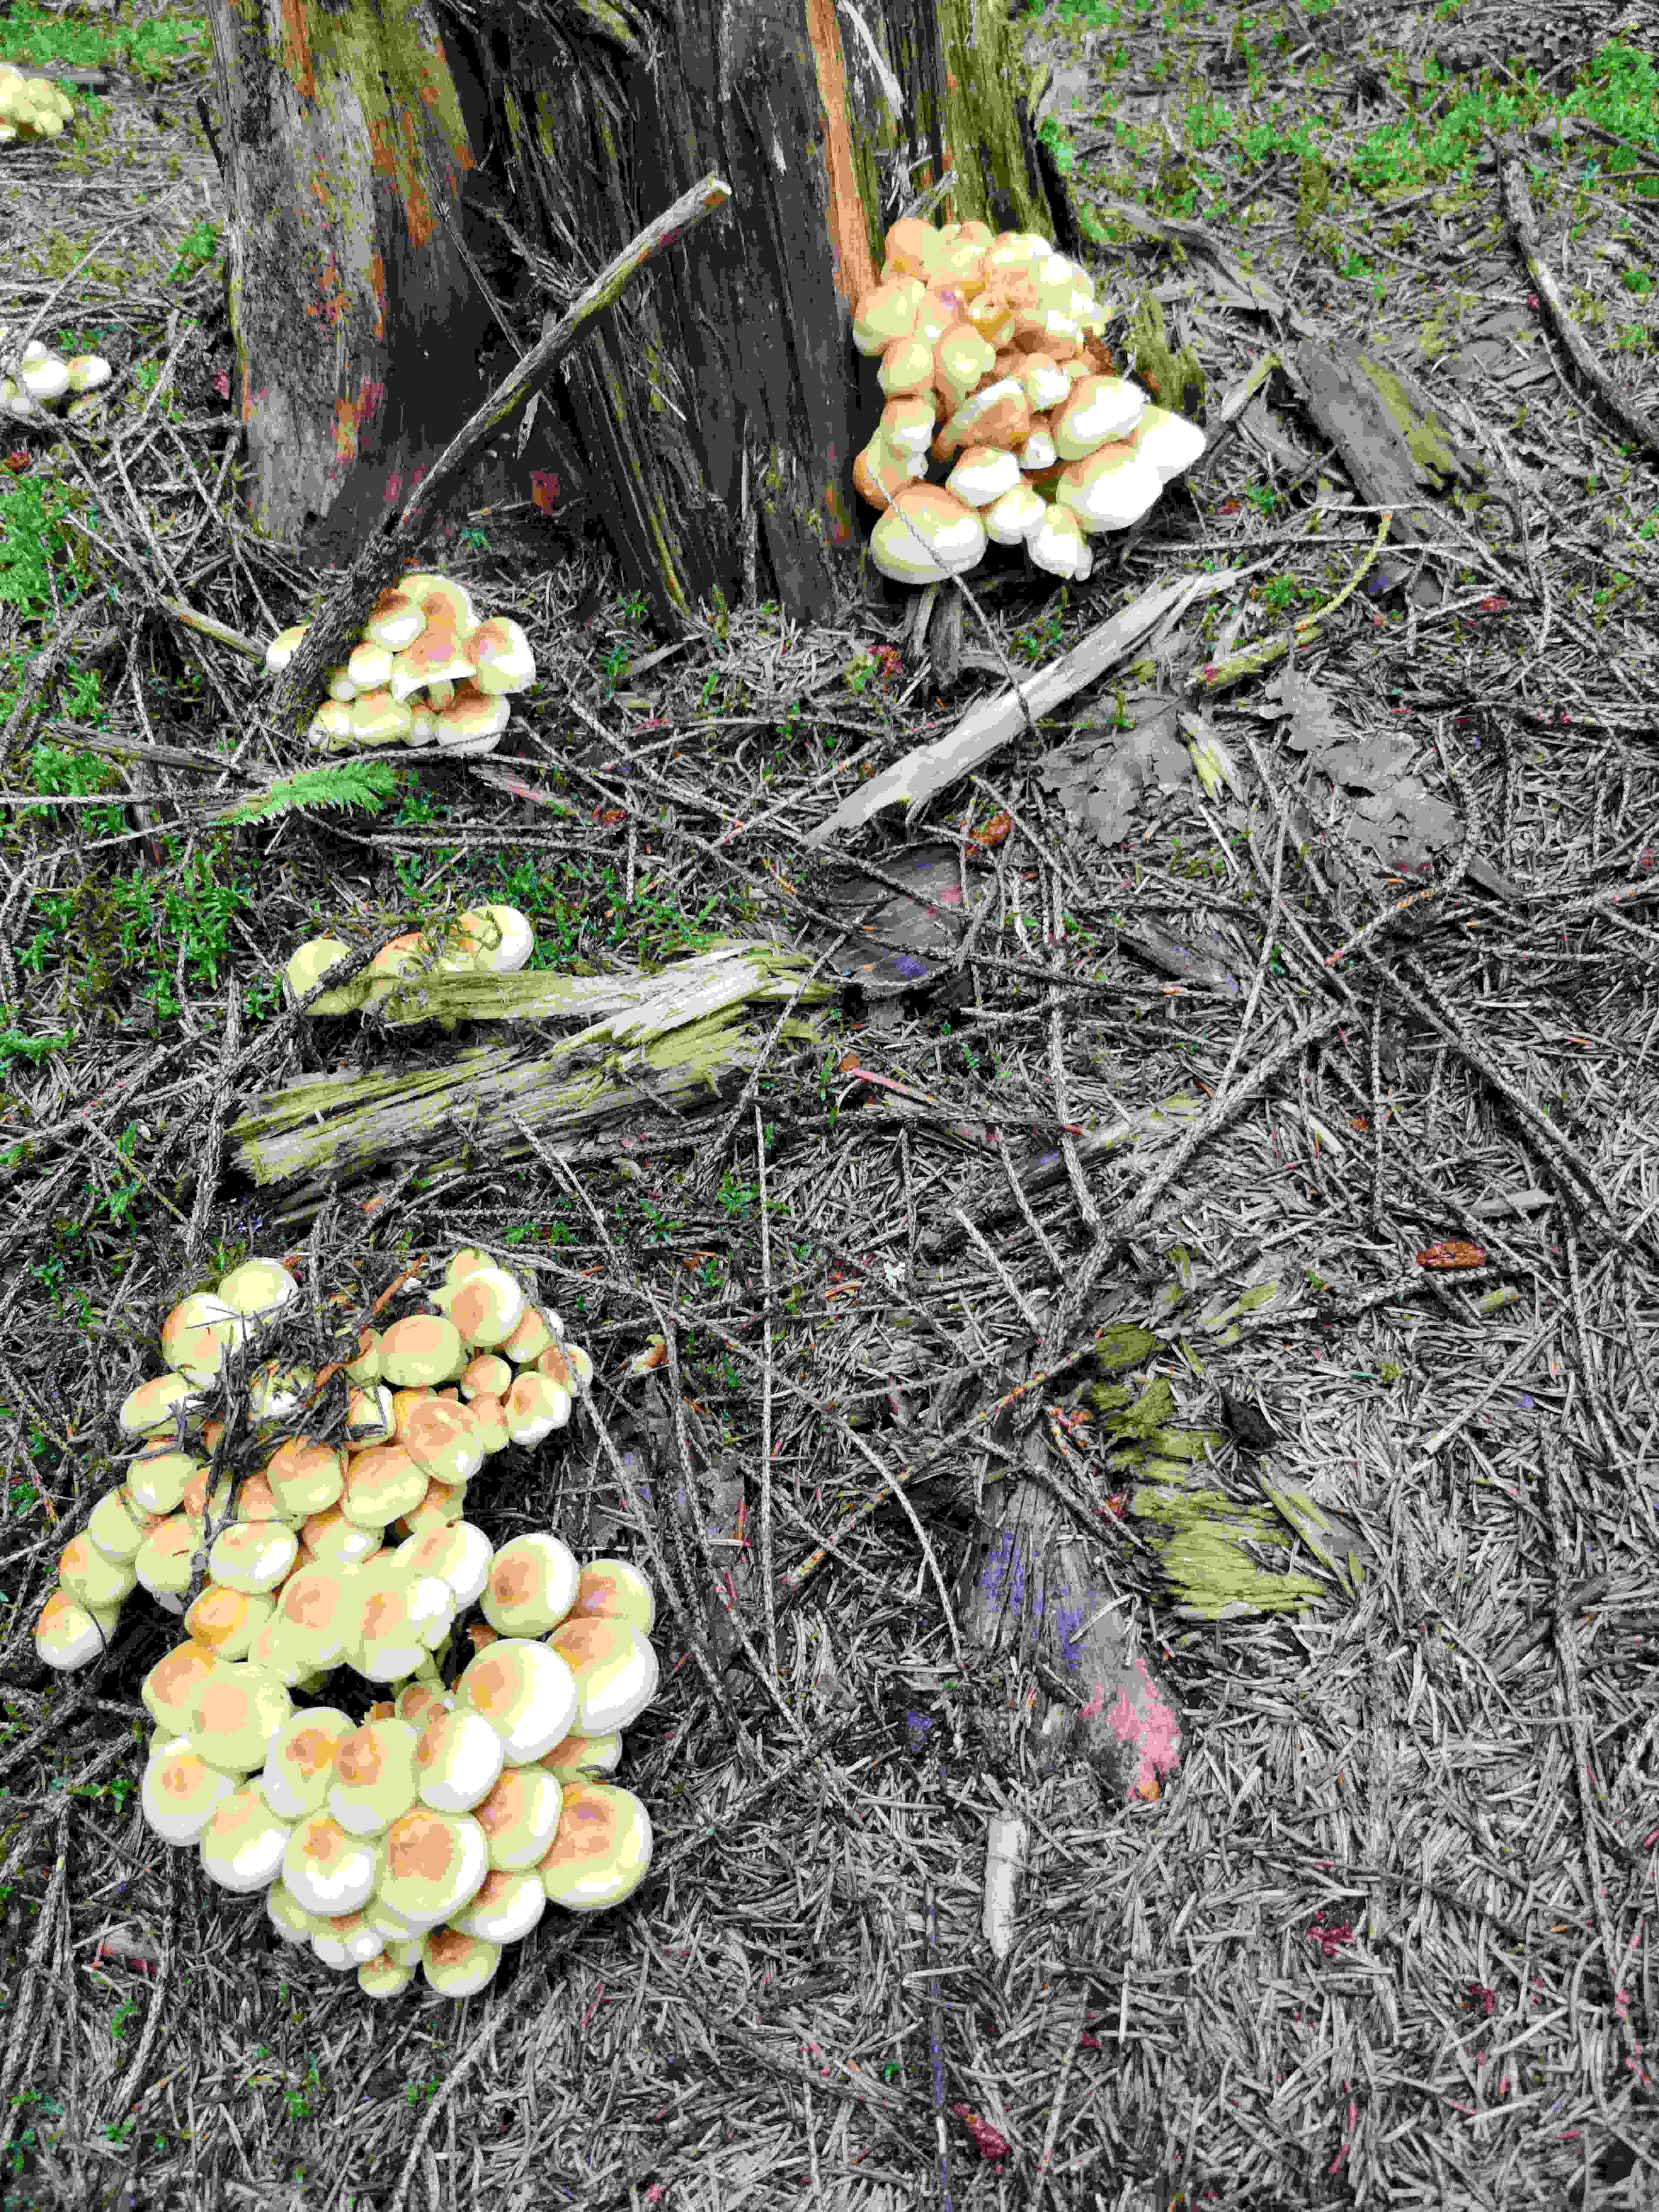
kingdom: Fungi
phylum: Basidiomycota
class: Agaricomycetes
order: Agaricales
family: Strophariaceae
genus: Hypholoma
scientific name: Hypholoma fasciculare
